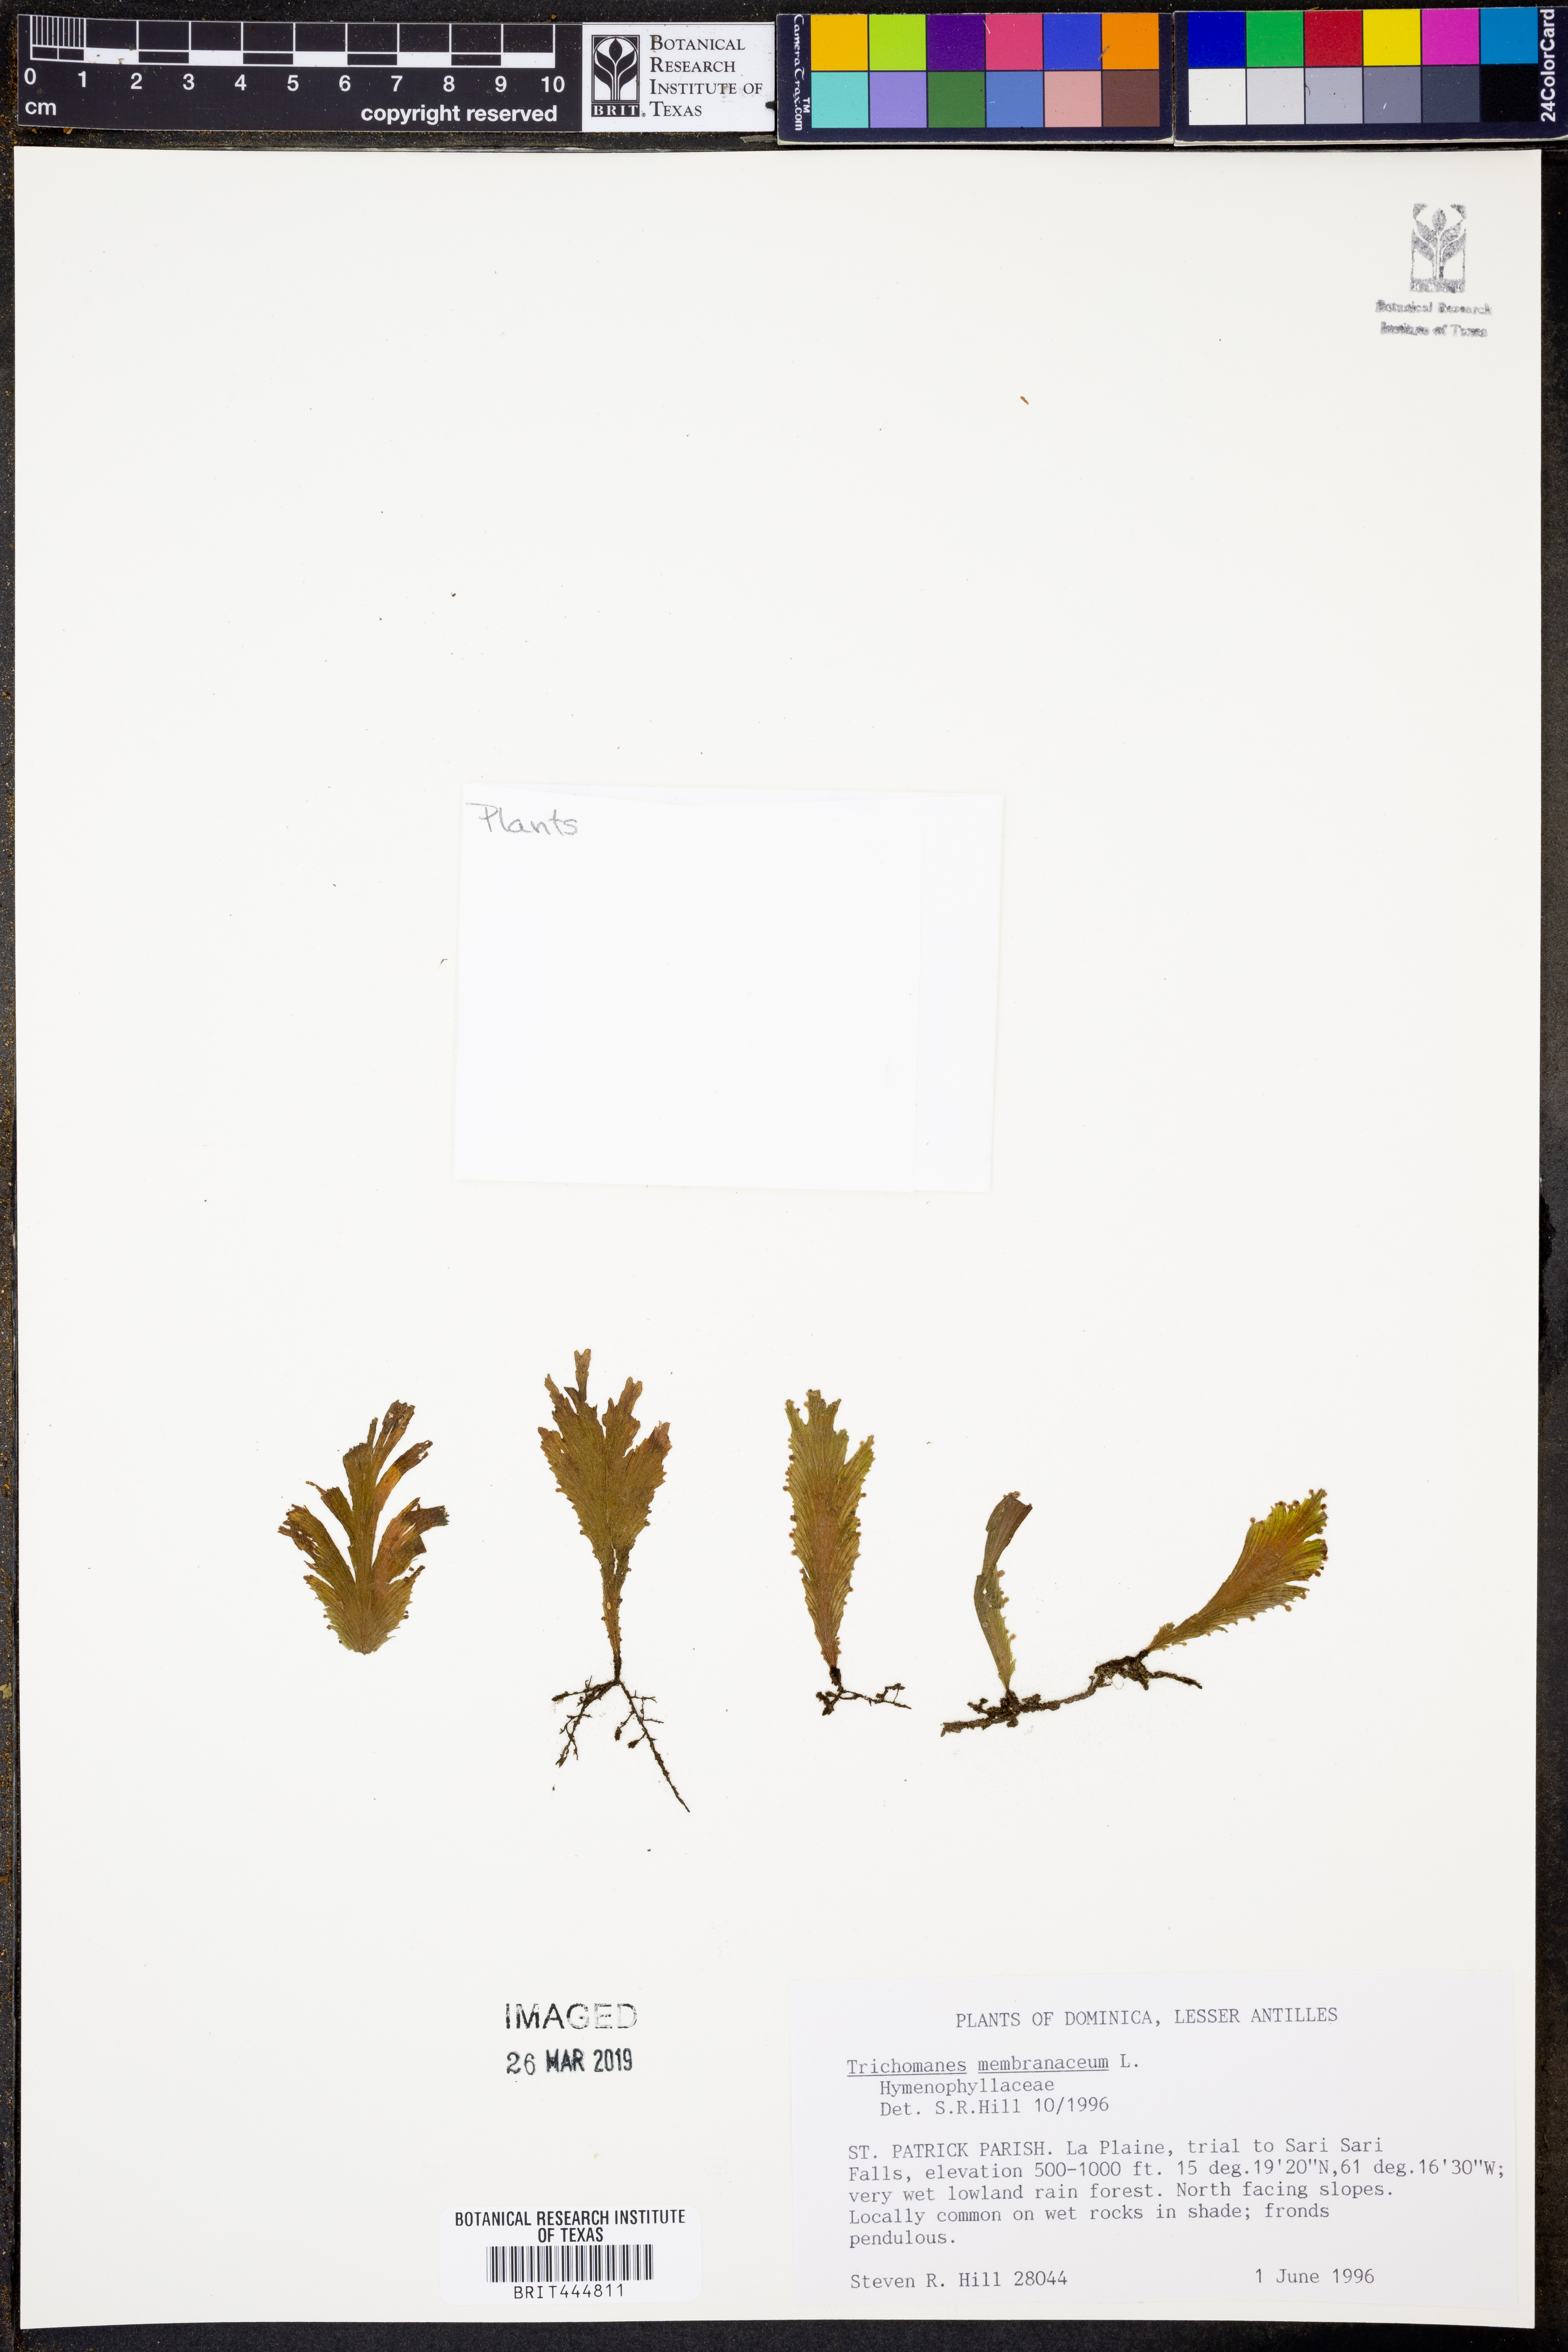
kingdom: Plantae
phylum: Tracheophyta
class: Polypodiopsida
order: Hymenophyllales
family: Hymenophyllaceae
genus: Didymoglossum
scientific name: Didymoglossum membranaceum
